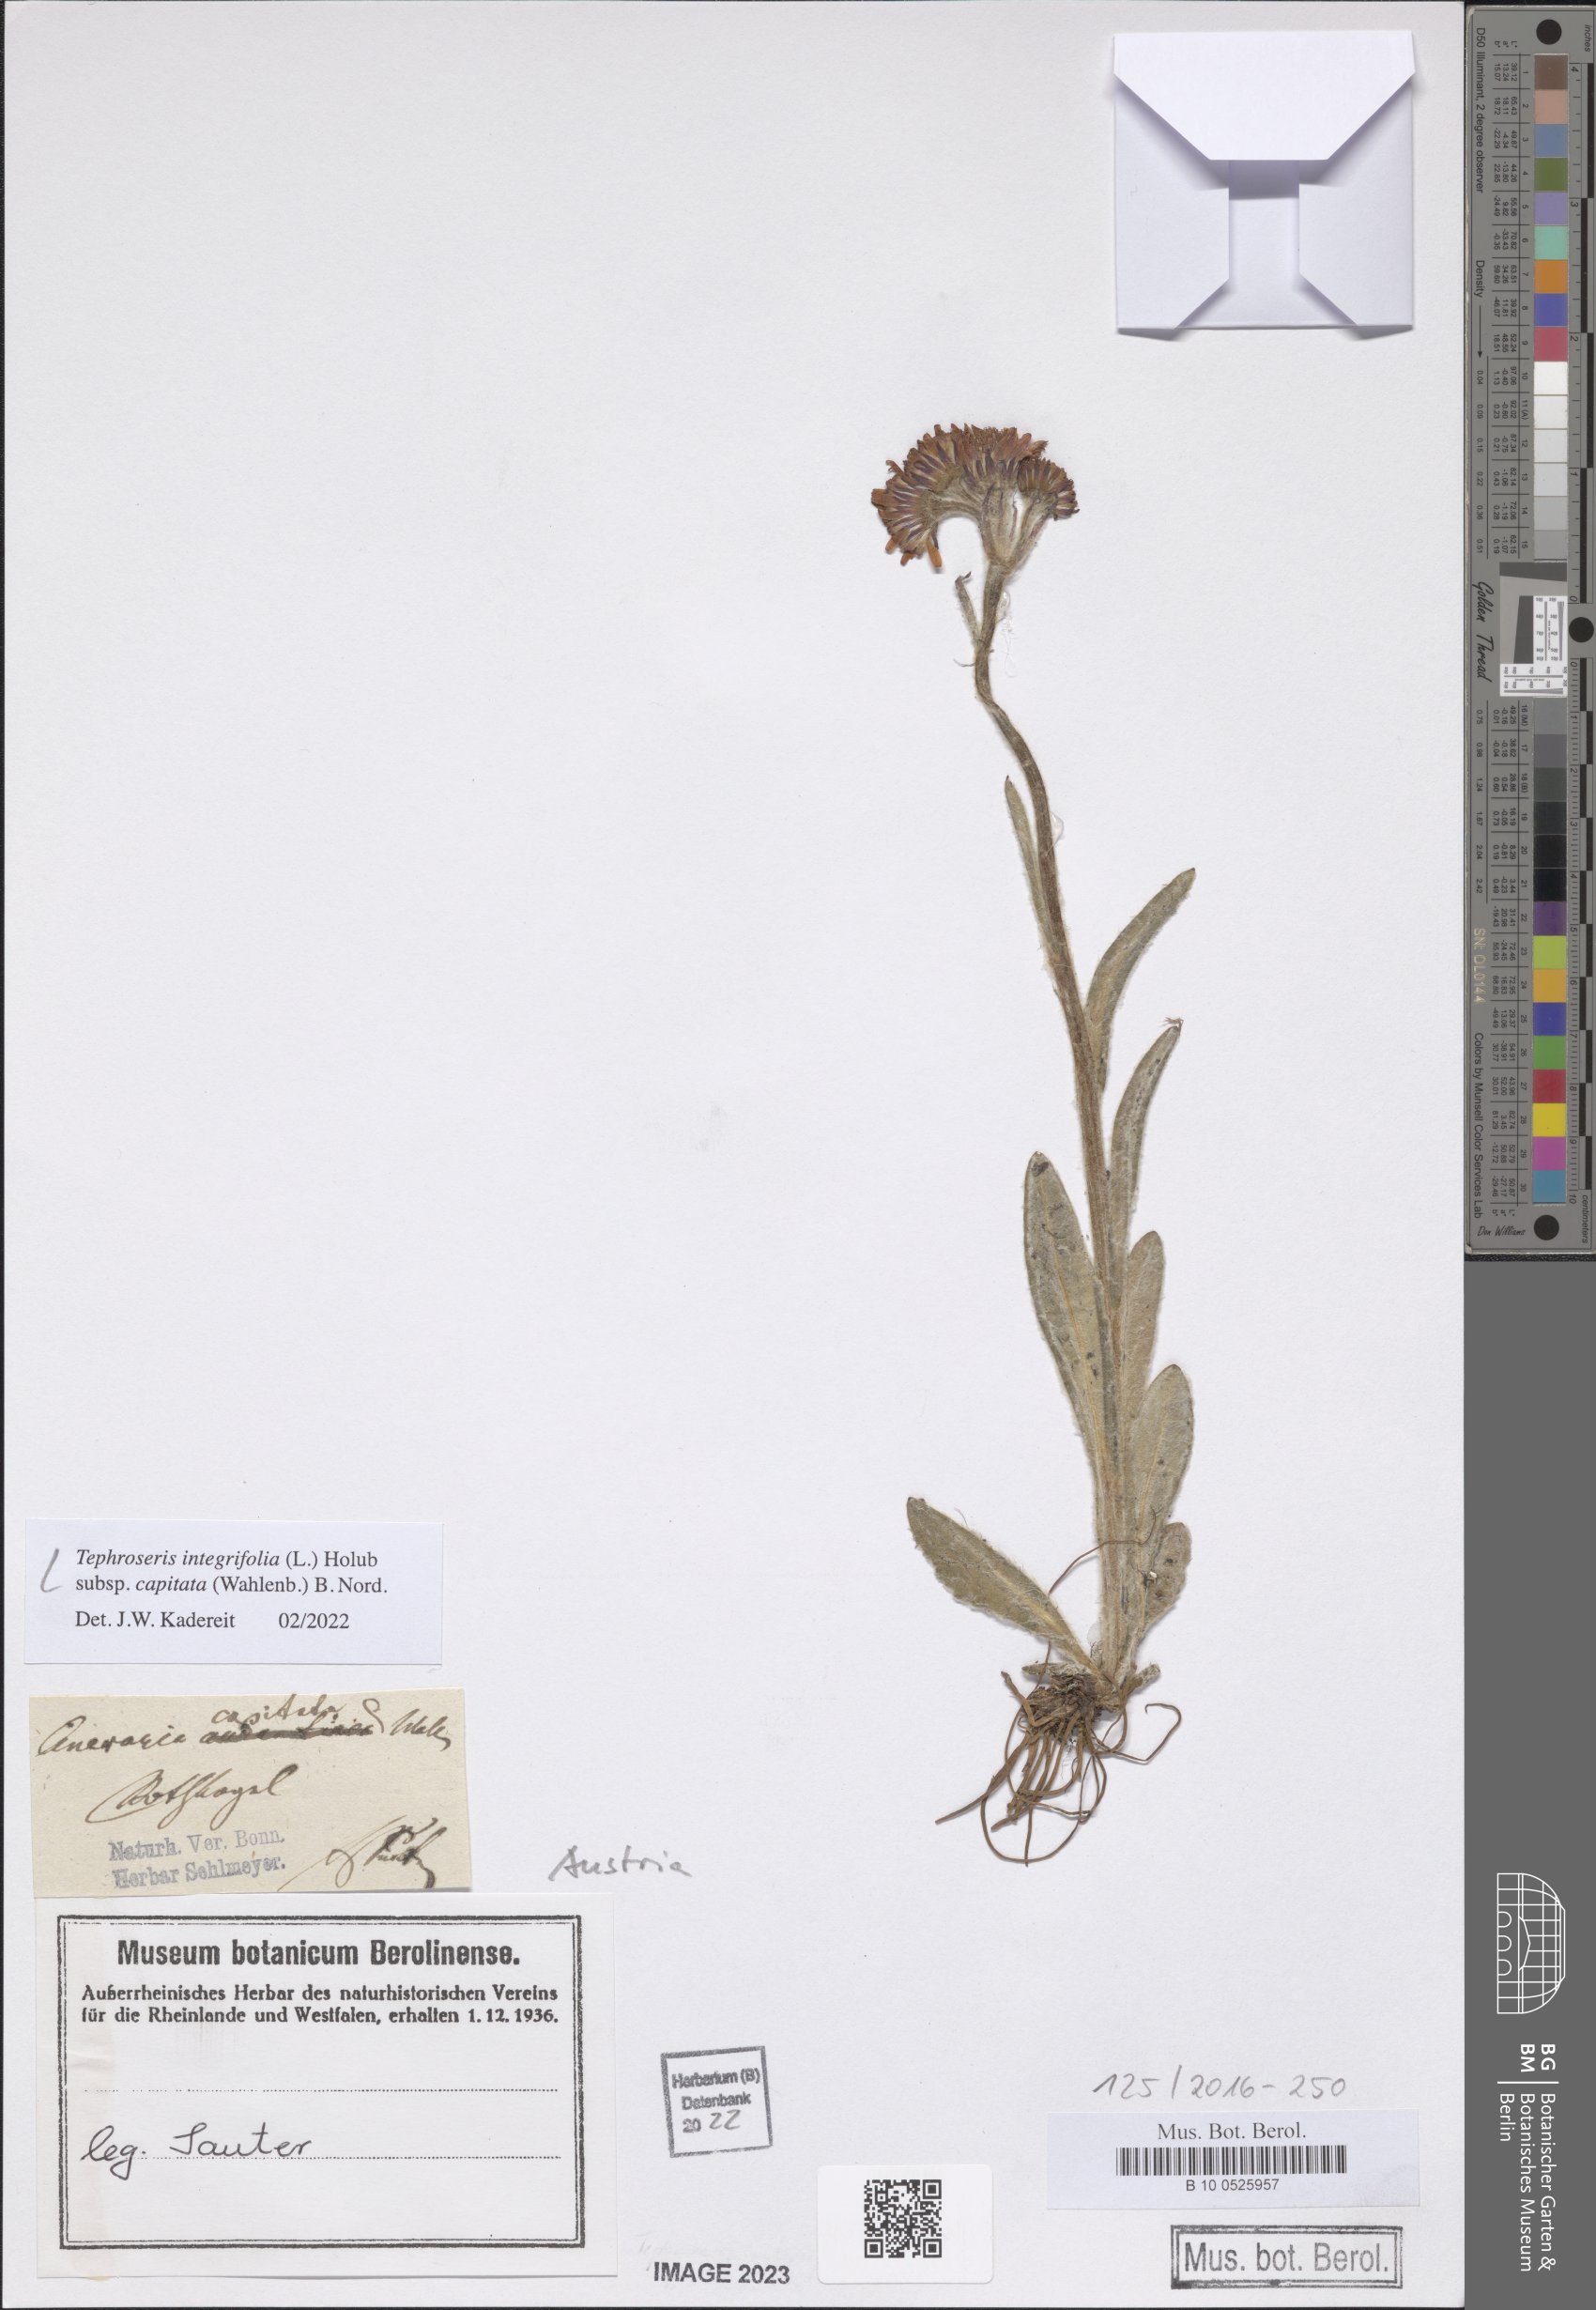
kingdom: Plantae
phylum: Tracheophyta
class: Magnoliopsida
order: Asterales
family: Asteraceae
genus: Tephroseris
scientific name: Tephroseris integrifolia
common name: Field fleawort
